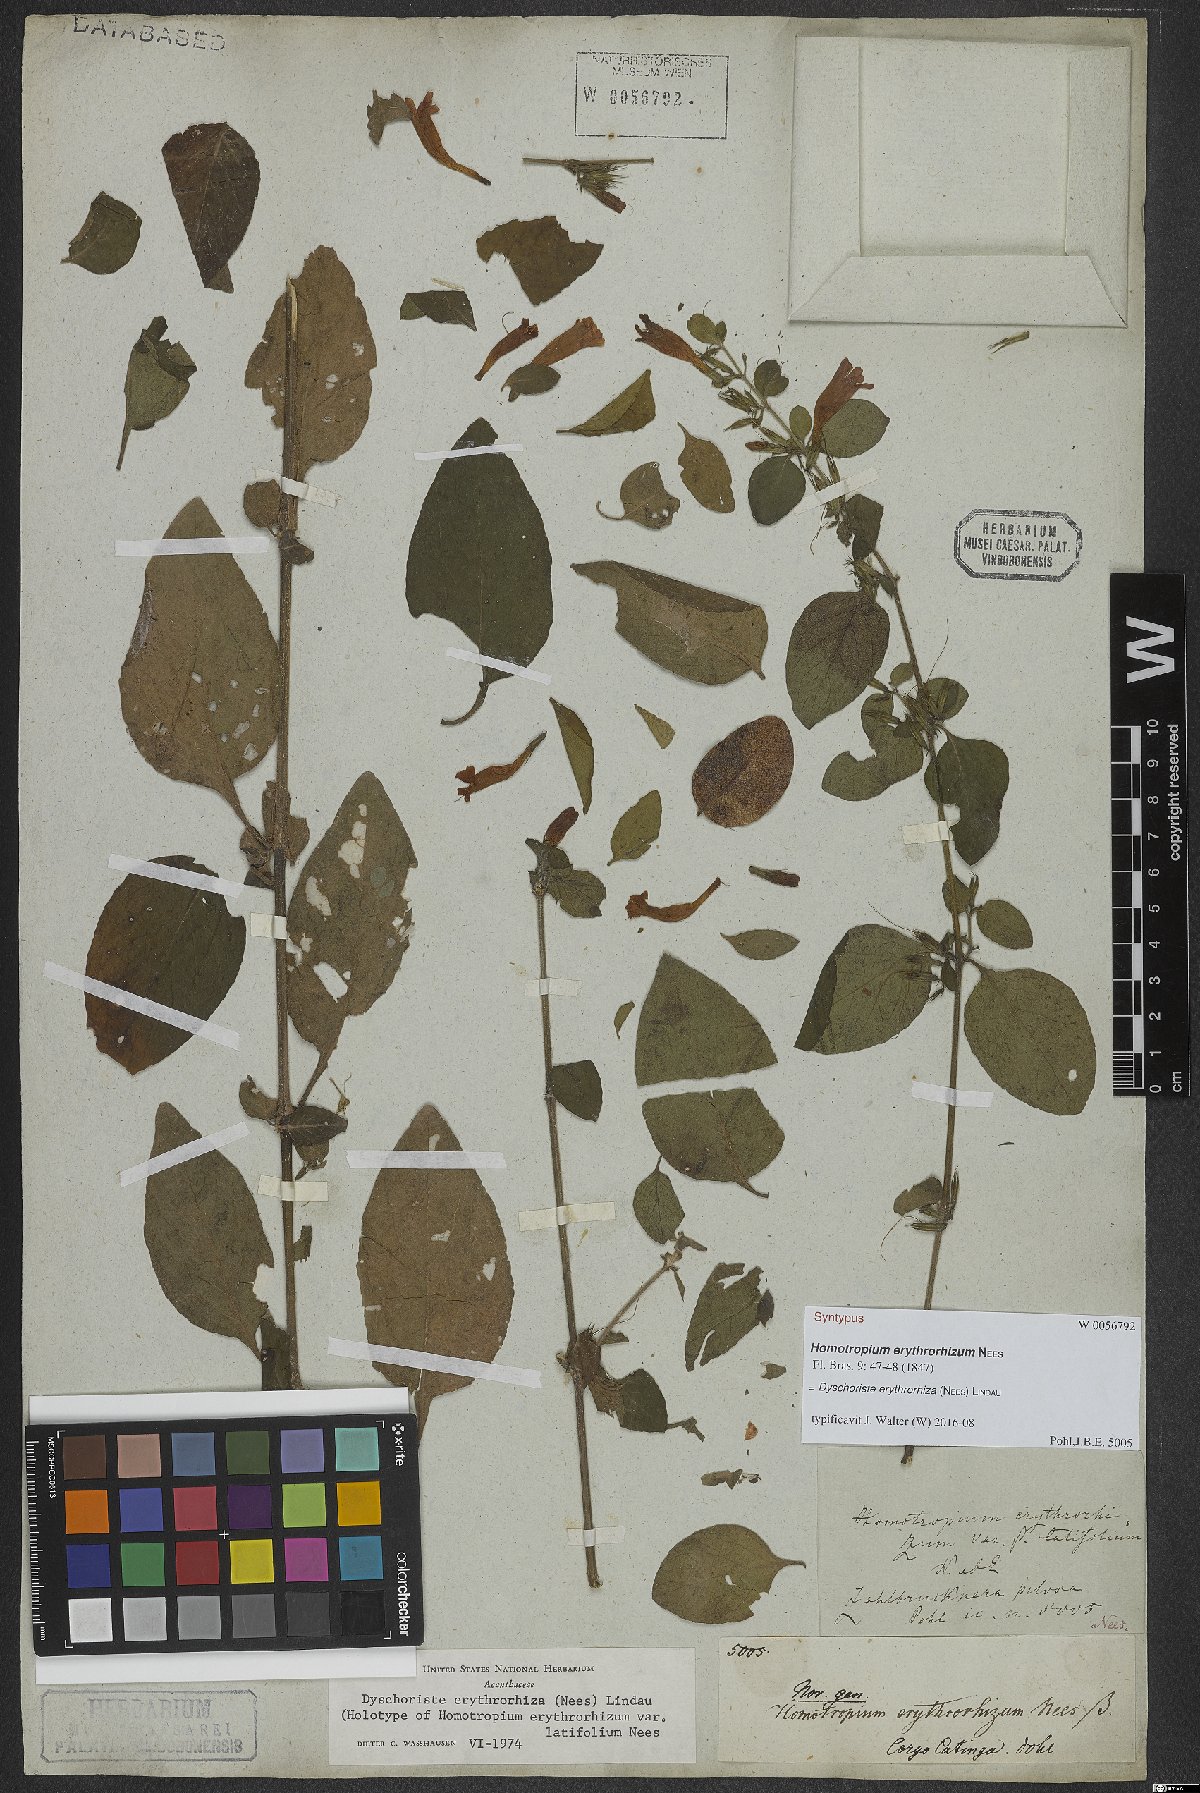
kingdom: Plantae
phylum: Tracheophyta
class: Magnoliopsida
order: Lamiales
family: Acanthaceae
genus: Dyschoriste
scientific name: Dyschoriste erythrorhiza
